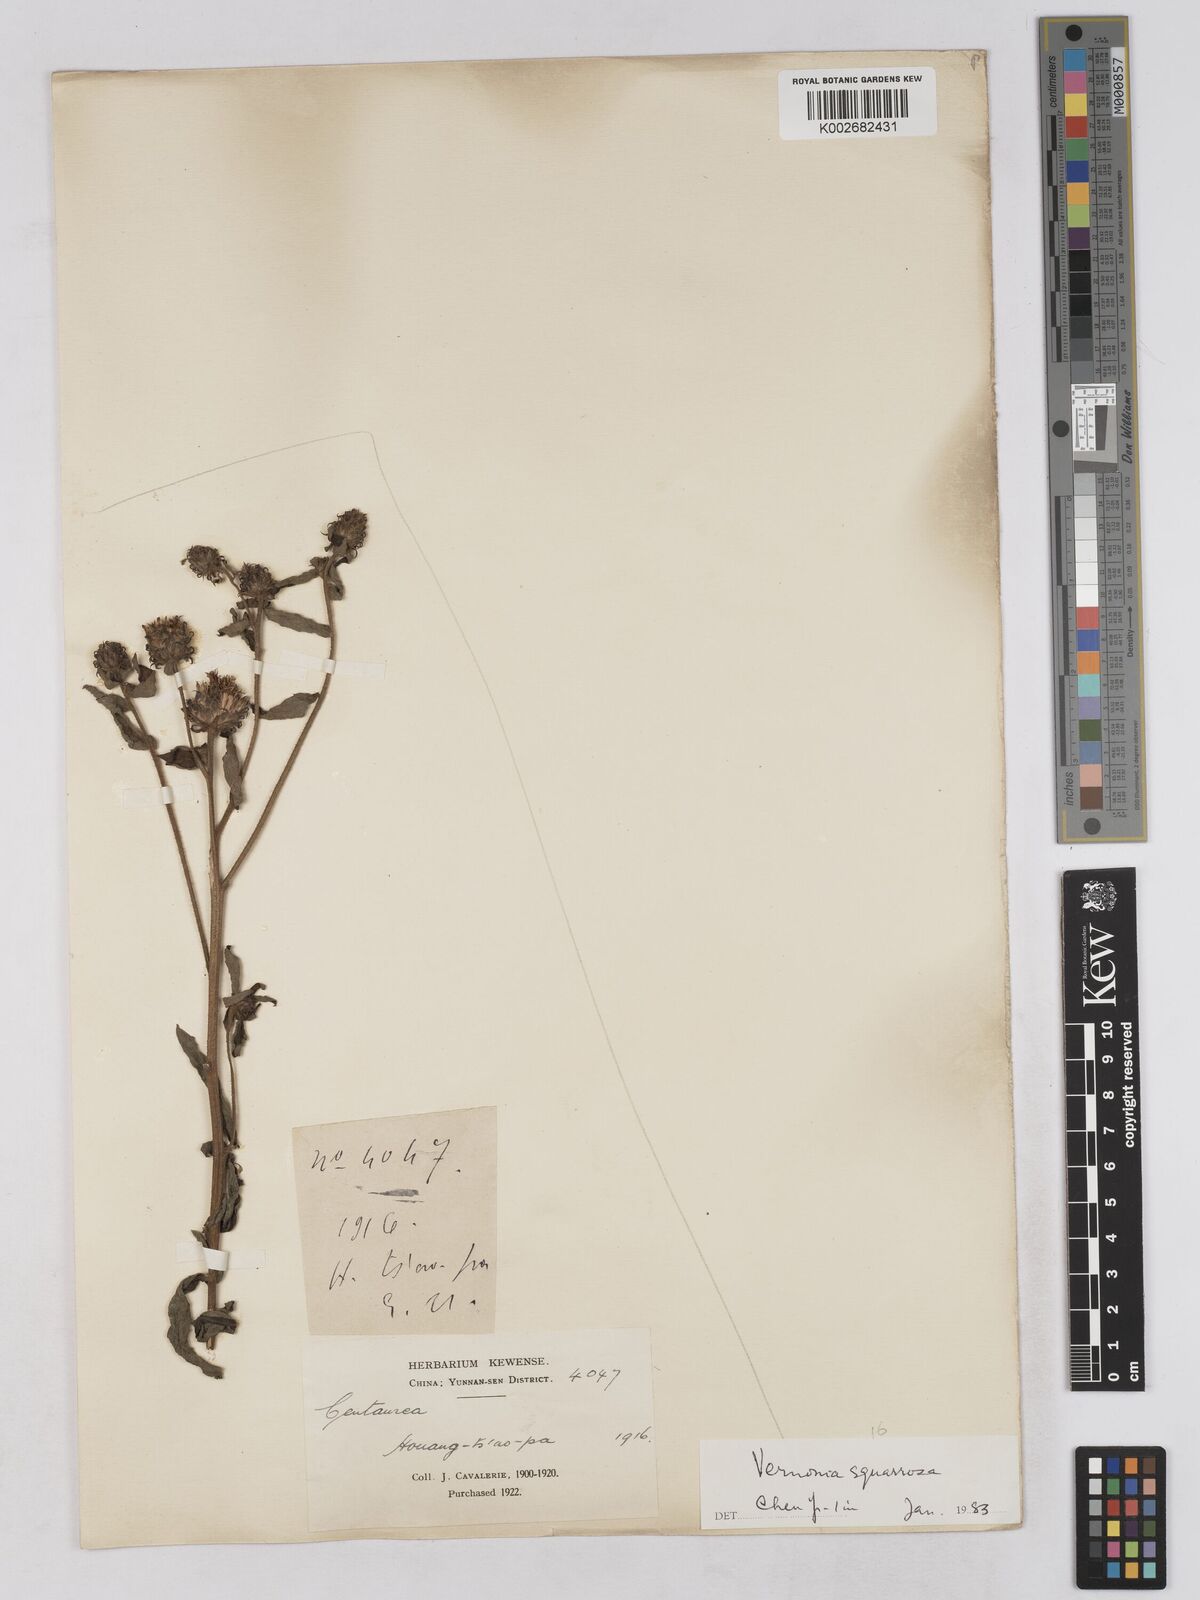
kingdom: Plantae
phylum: Tracheophyta
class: Magnoliopsida
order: Asterales
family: Asteraceae
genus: Vernonia
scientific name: Vernonia
